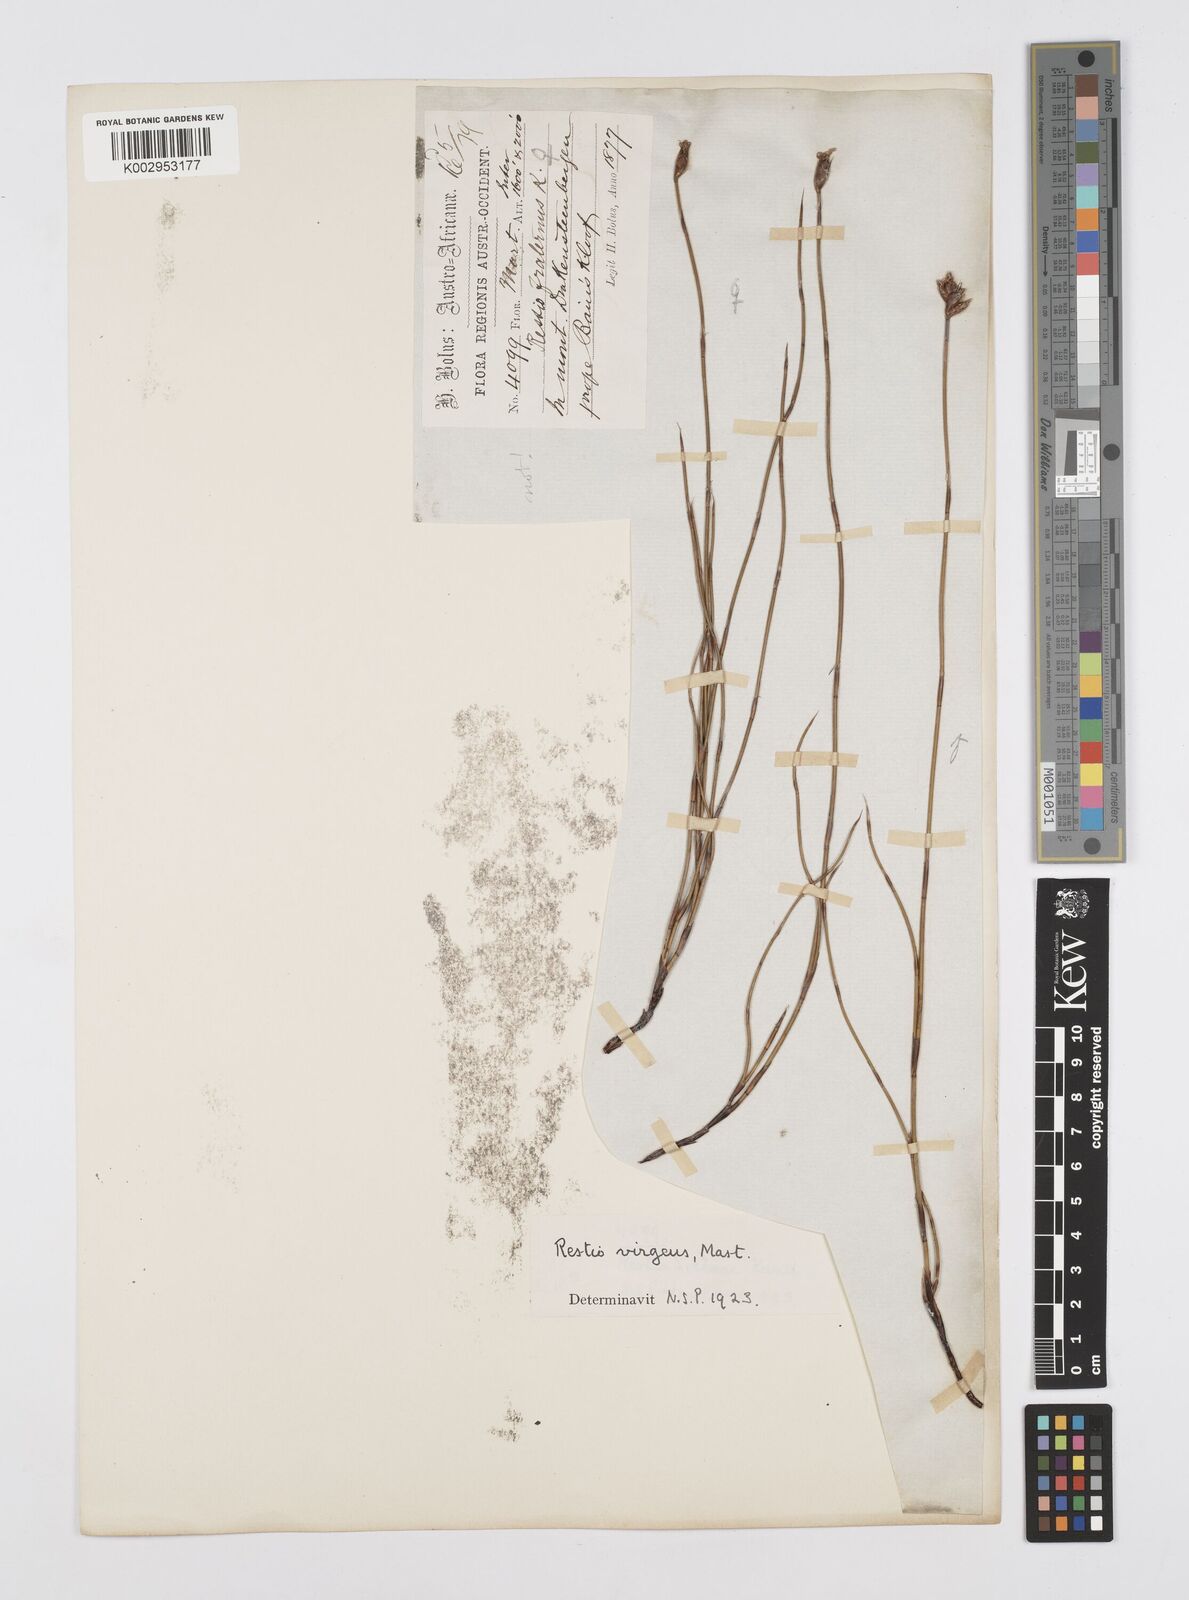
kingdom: Plantae
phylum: Tracheophyta
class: Liliopsida
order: Poales
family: Restionaceae
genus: Restio
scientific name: Restio virgeus
